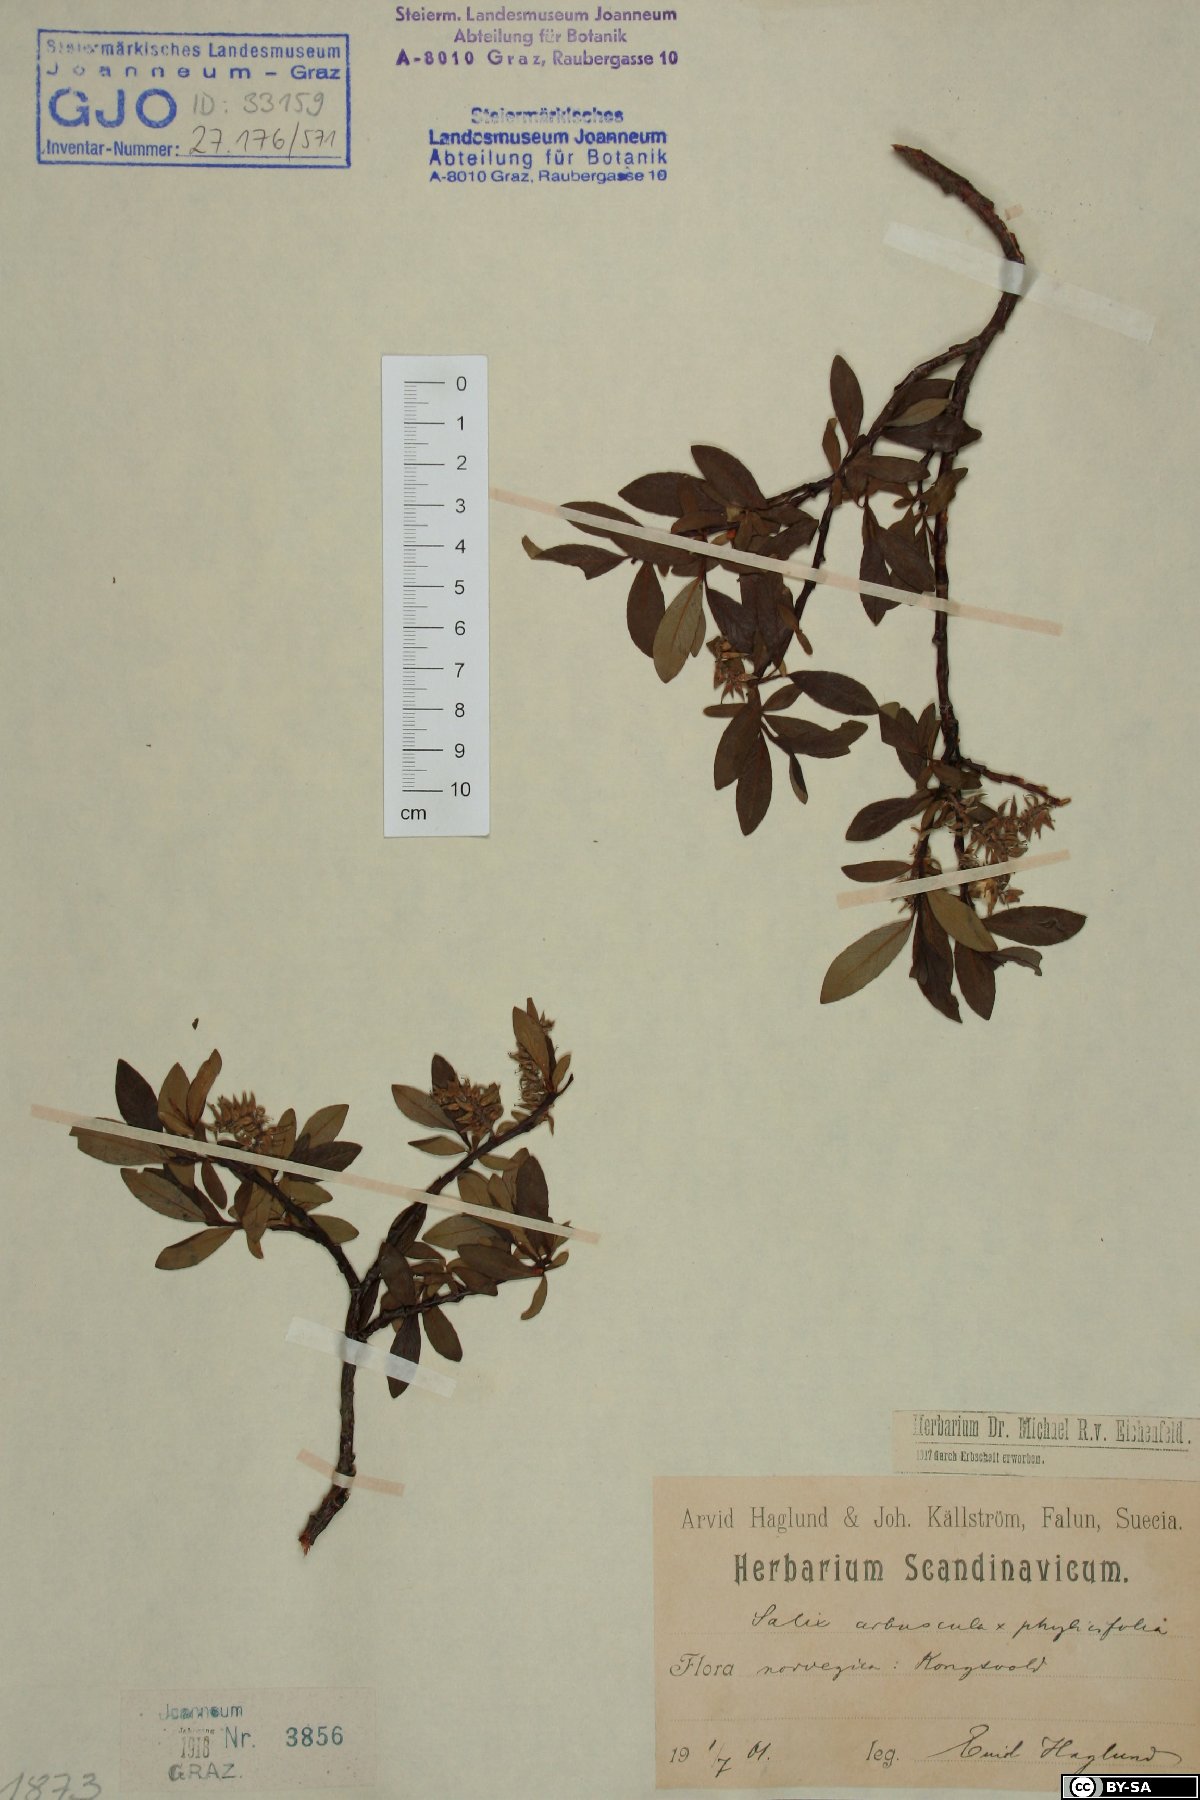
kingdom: Plantae
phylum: Tracheophyta
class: Magnoliopsida
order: Malpighiales
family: Salicaceae
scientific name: Salicaceae
